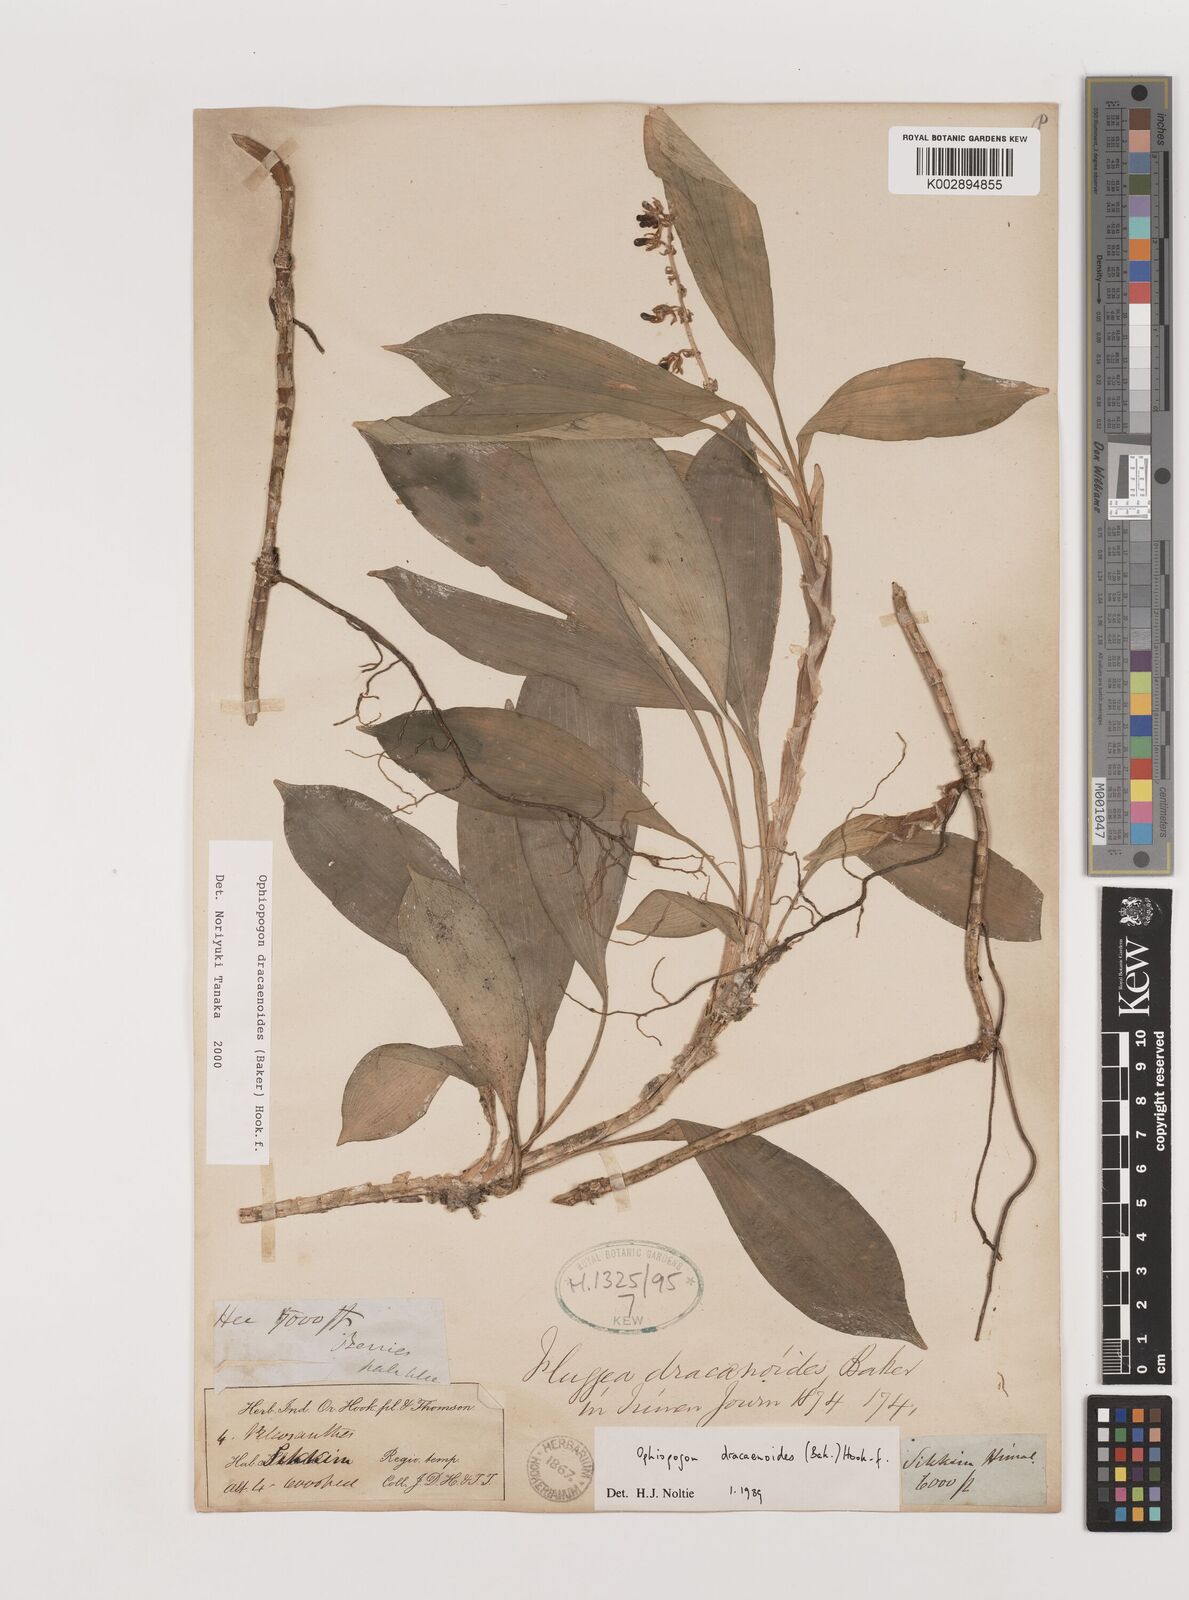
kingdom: Plantae
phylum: Tracheophyta
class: Liliopsida
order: Asparagales
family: Asparagaceae
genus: Ophiopogon
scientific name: Ophiopogon dracaenoides
